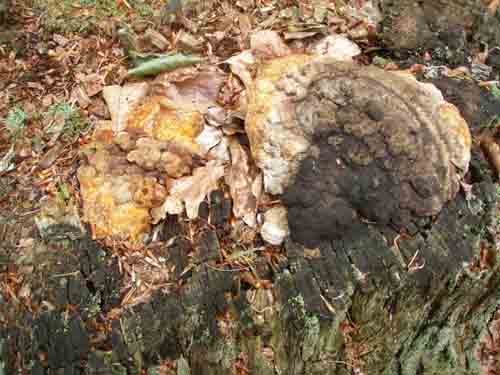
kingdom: Fungi
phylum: Basidiomycota
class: Agaricomycetes
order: Gloeophyllales
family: Gloeophyllaceae
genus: Gloeophyllum
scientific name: Gloeophyllum odoratum
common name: duftende korkhat
